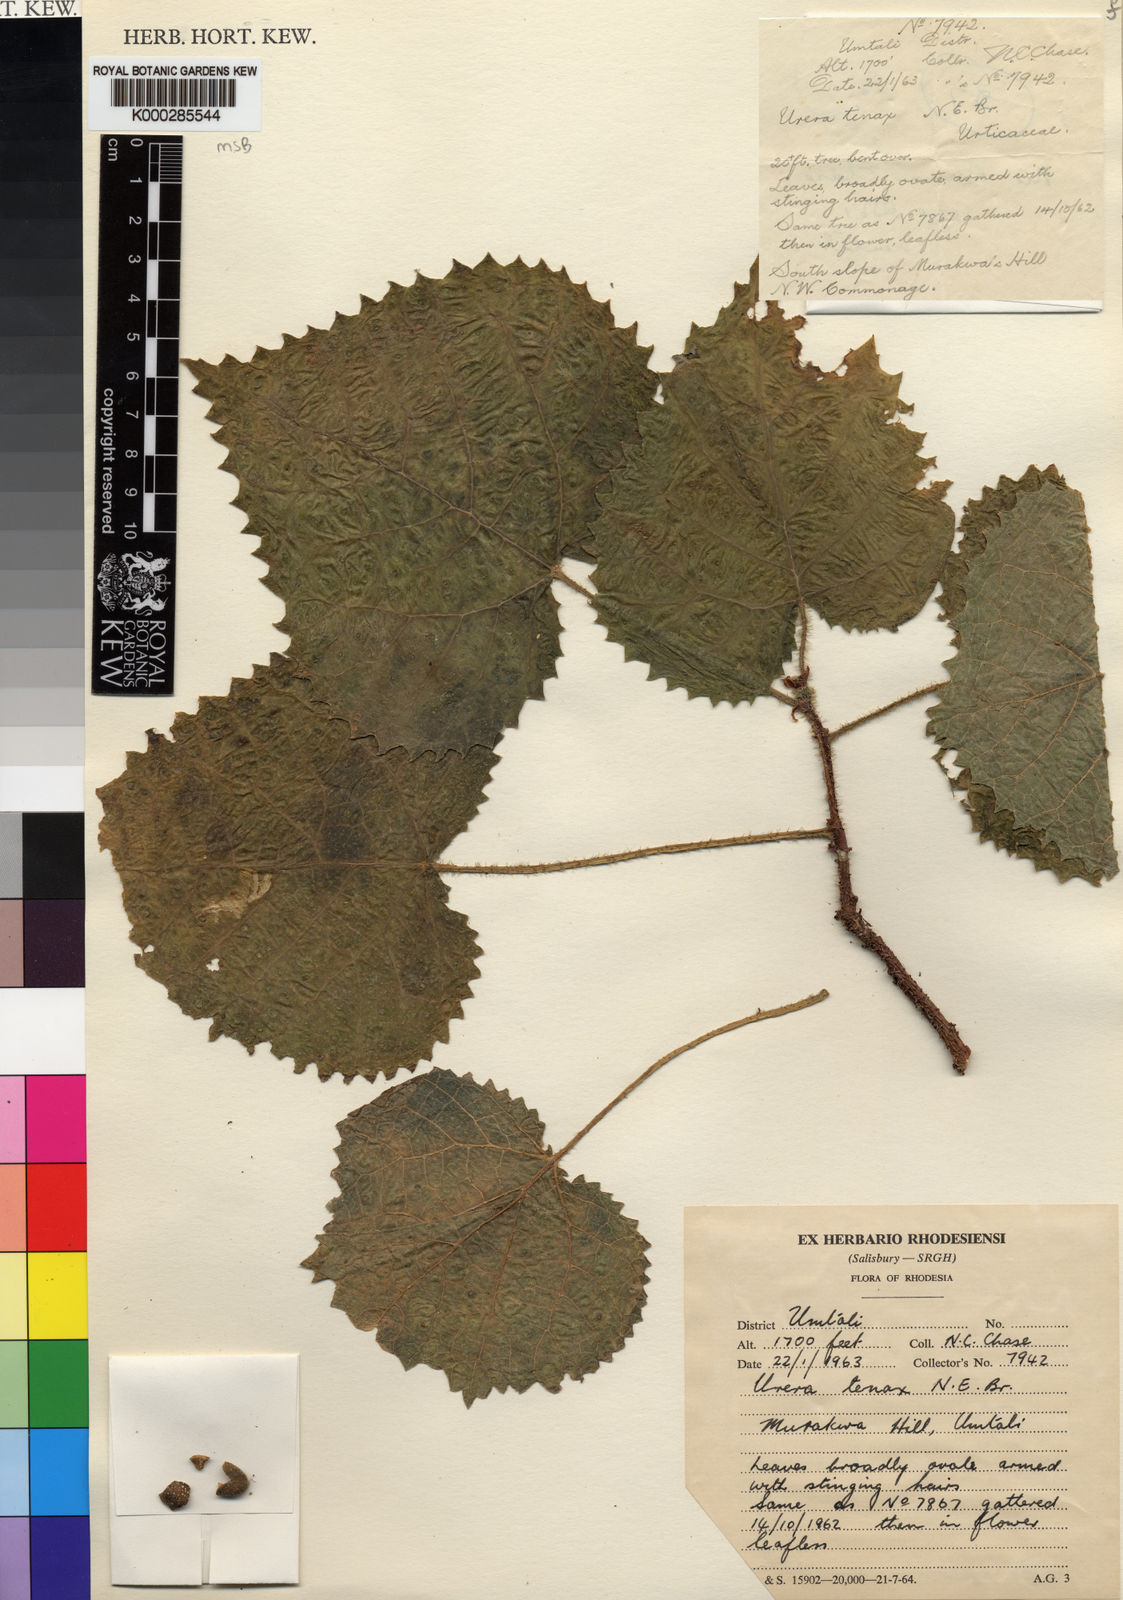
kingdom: Plantae
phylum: Tracheophyta
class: Magnoliopsida
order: Rosales
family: Urticaceae
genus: Obetia
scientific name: Obetia tenax
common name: Rock tree nettle
